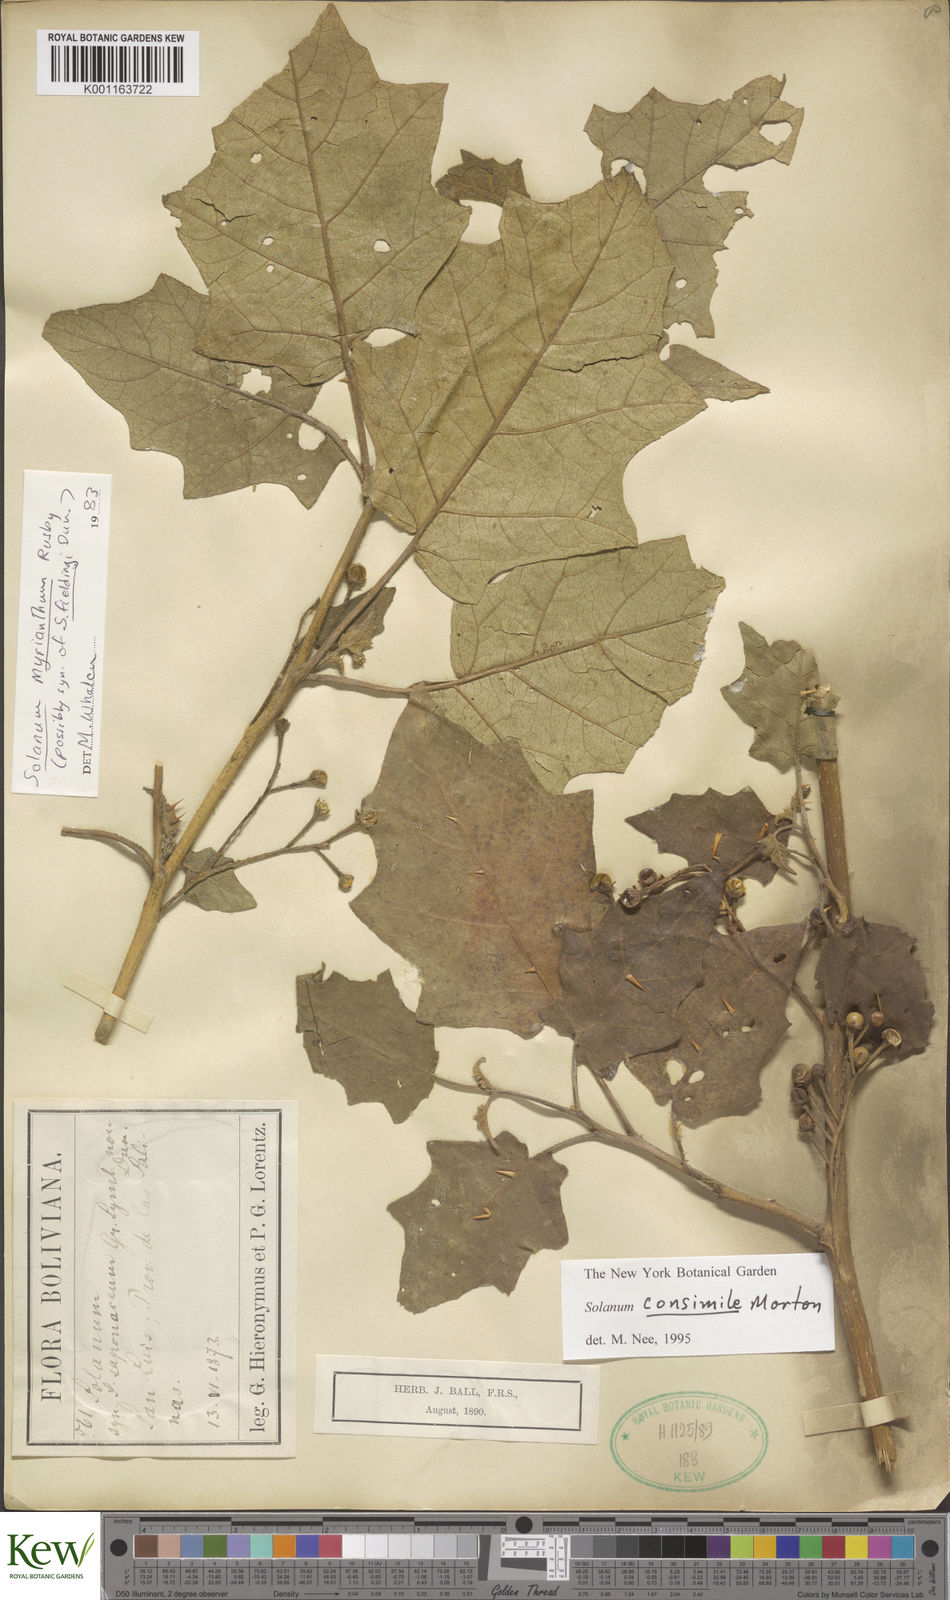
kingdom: Plantae
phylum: Tracheophyta
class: Magnoliopsida
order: Solanales
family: Solanaceae
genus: Solanum
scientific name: Solanum consimile
